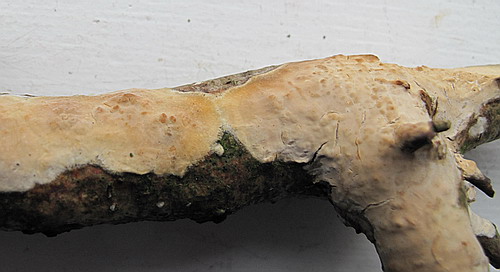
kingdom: Fungi
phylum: Basidiomycota
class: Agaricomycetes
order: Agaricales
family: Radulomycetaceae
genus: Radulomyces
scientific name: Radulomyces confluens
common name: glat naftalinskind
